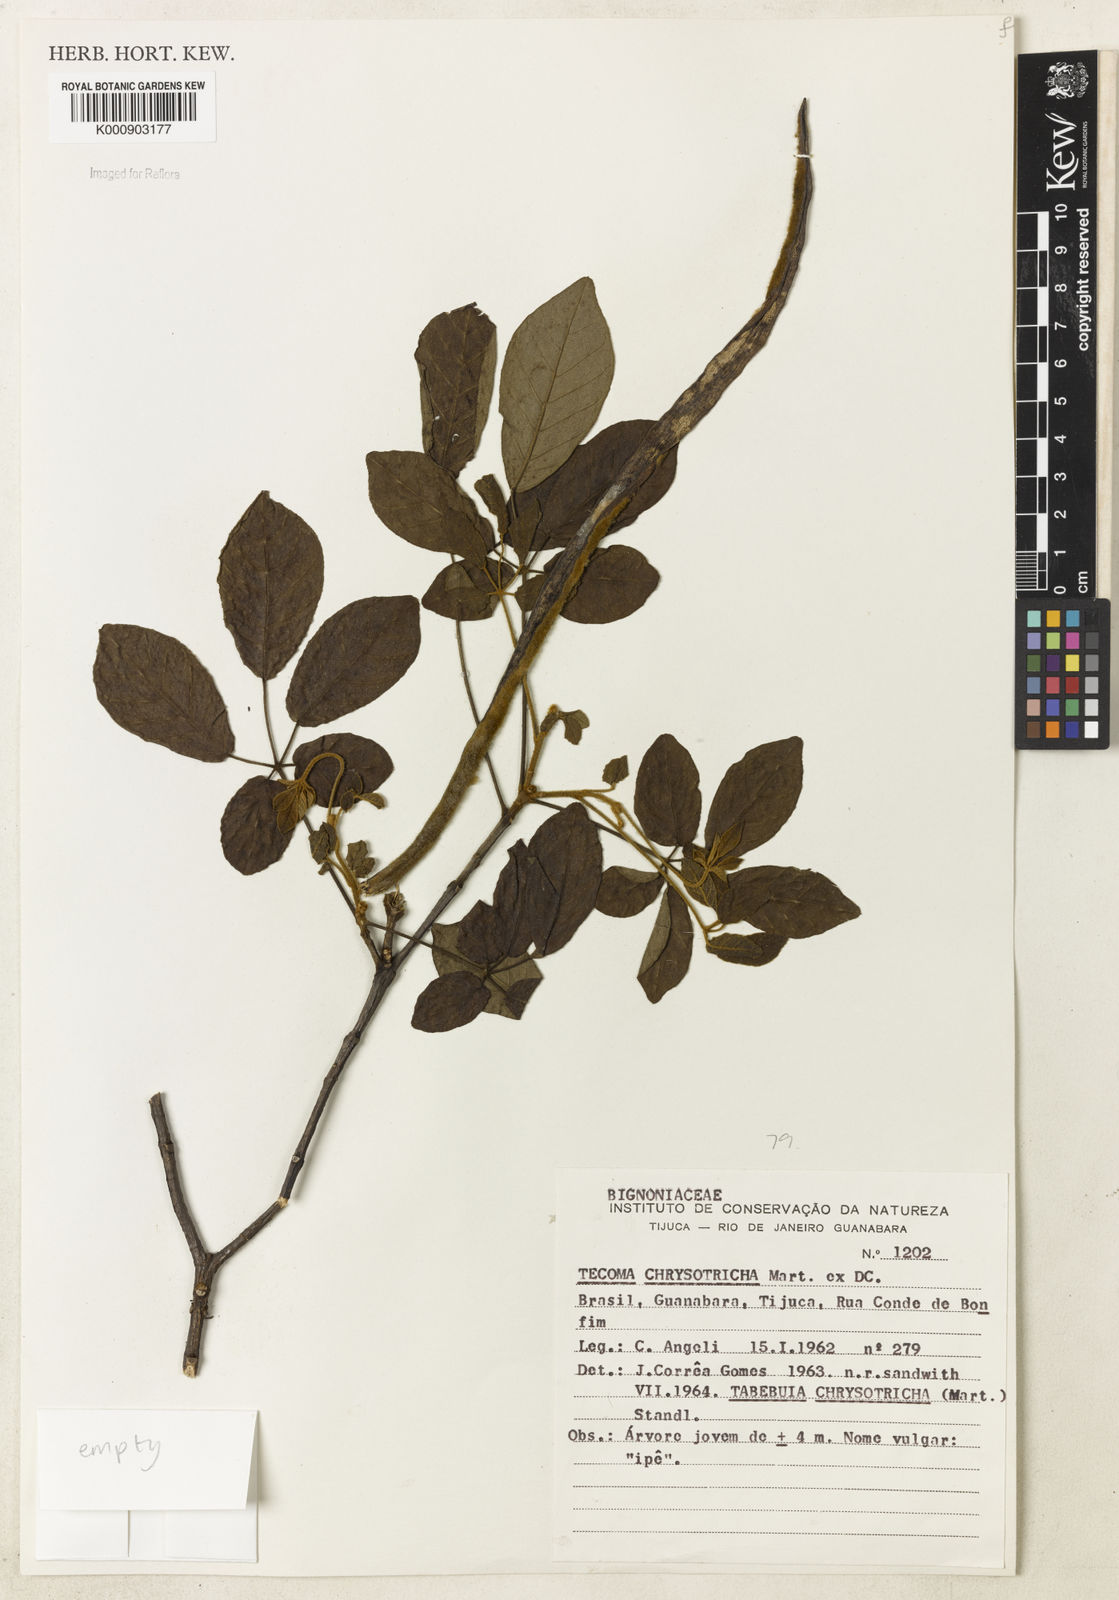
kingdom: Plantae
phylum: Tracheophyta
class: Magnoliopsida
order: Lamiales
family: Bignoniaceae
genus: Handroanthus
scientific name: Handroanthus chrysotrichus
